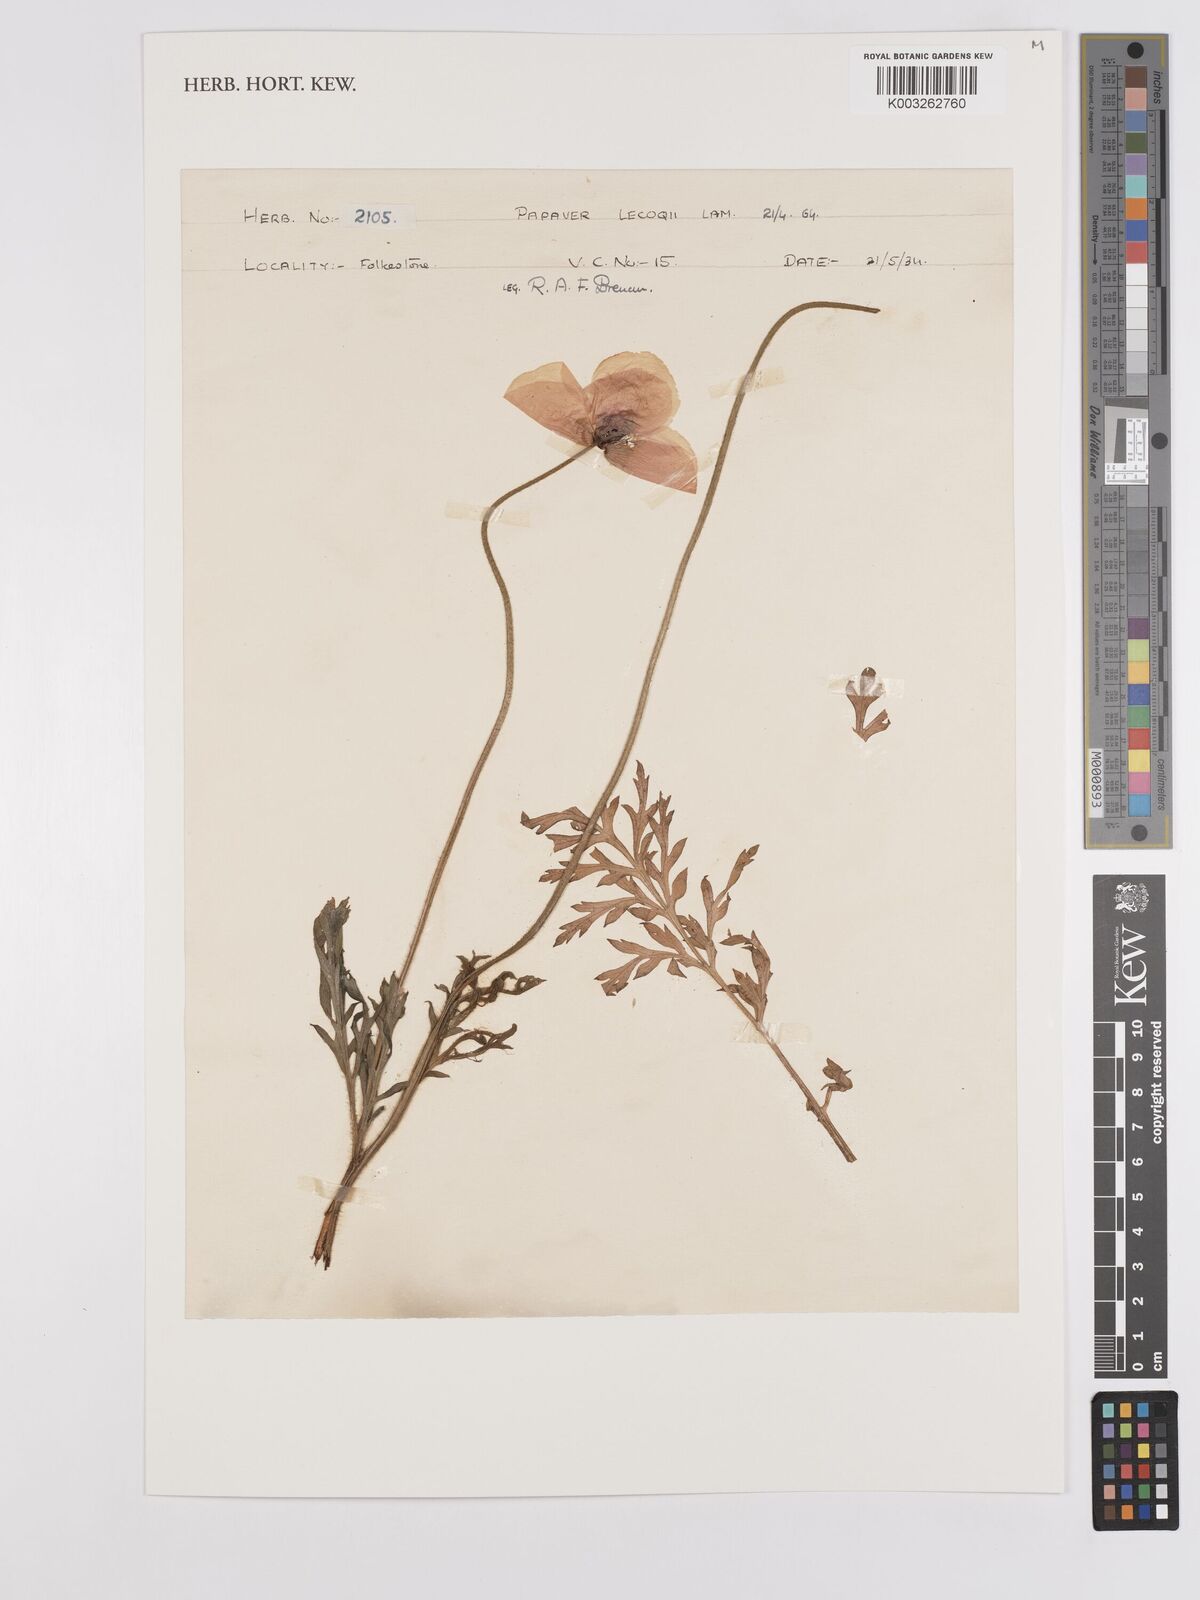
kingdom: Plantae
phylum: Tracheophyta
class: Magnoliopsida
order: Ranunculales
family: Papaveraceae
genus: Papaver
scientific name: Papaver lecoqii
